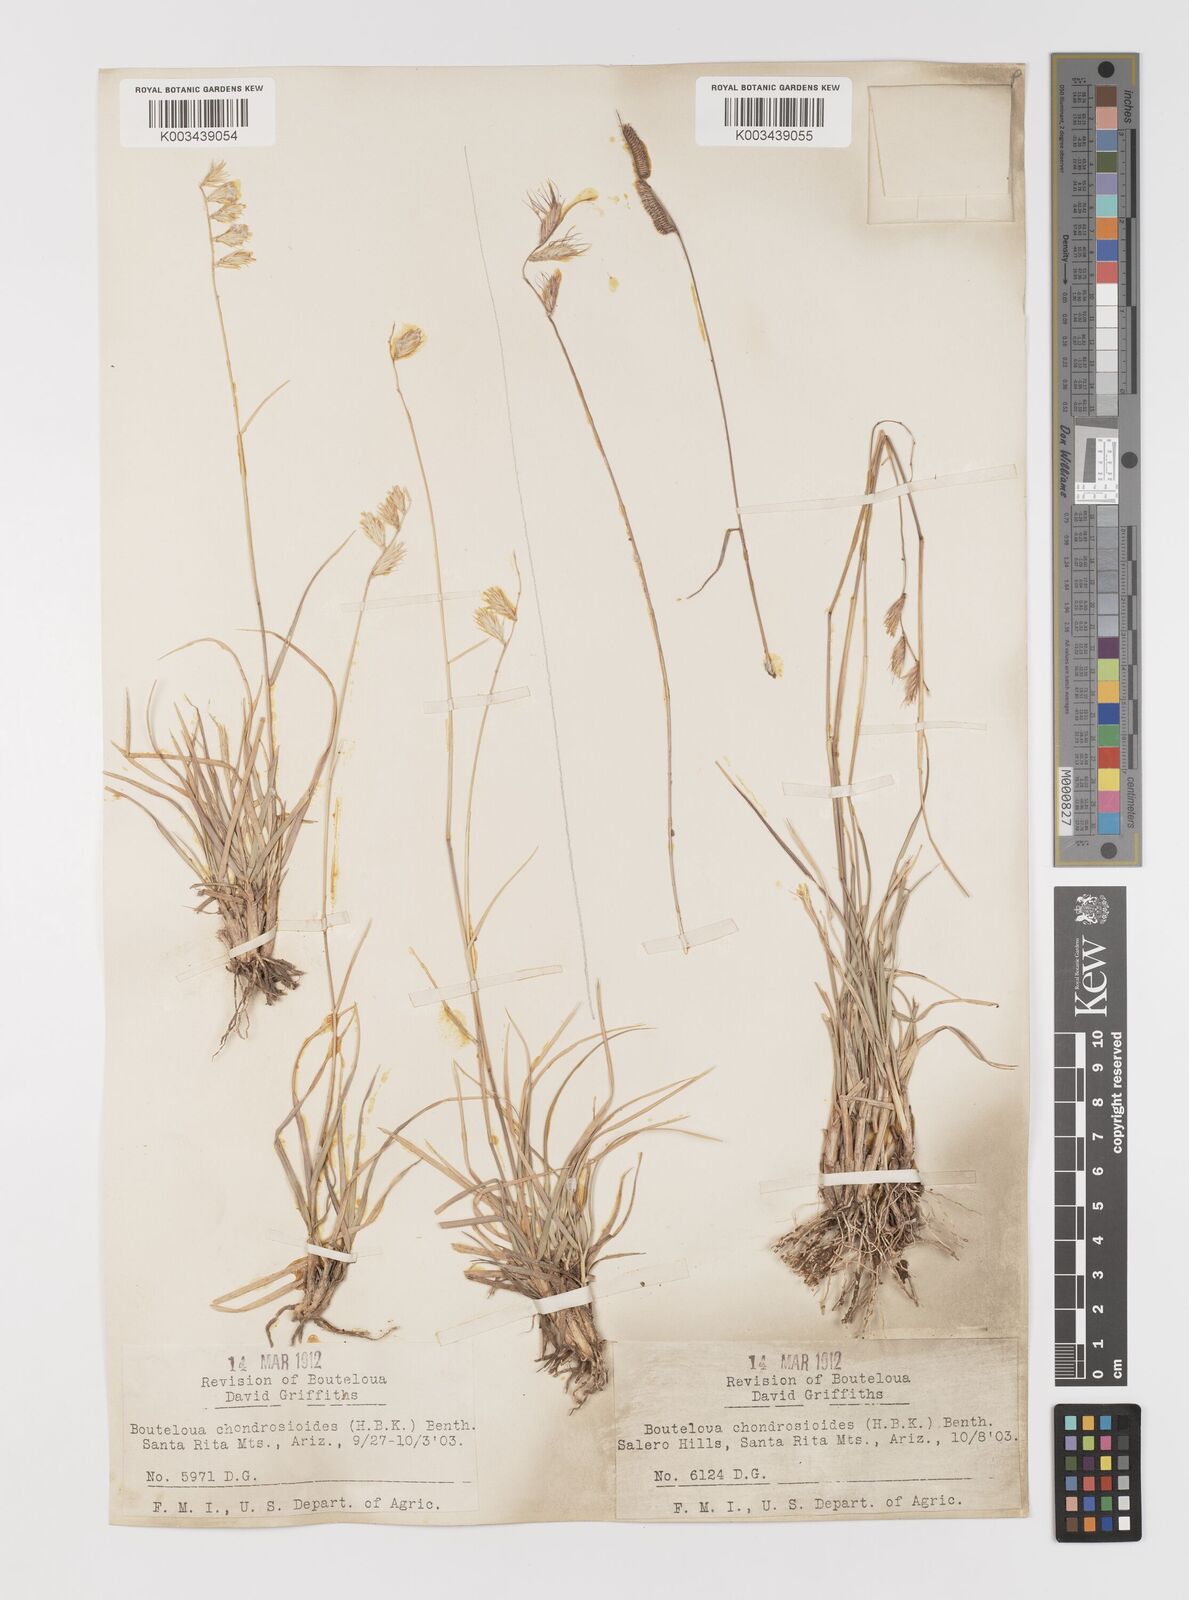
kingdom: Plantae
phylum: Tracheophyta
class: Liliopsida
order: Poales
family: Poaceae
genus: Bouteloua
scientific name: Bouteloua chondrosioides
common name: Sprucetop grama
